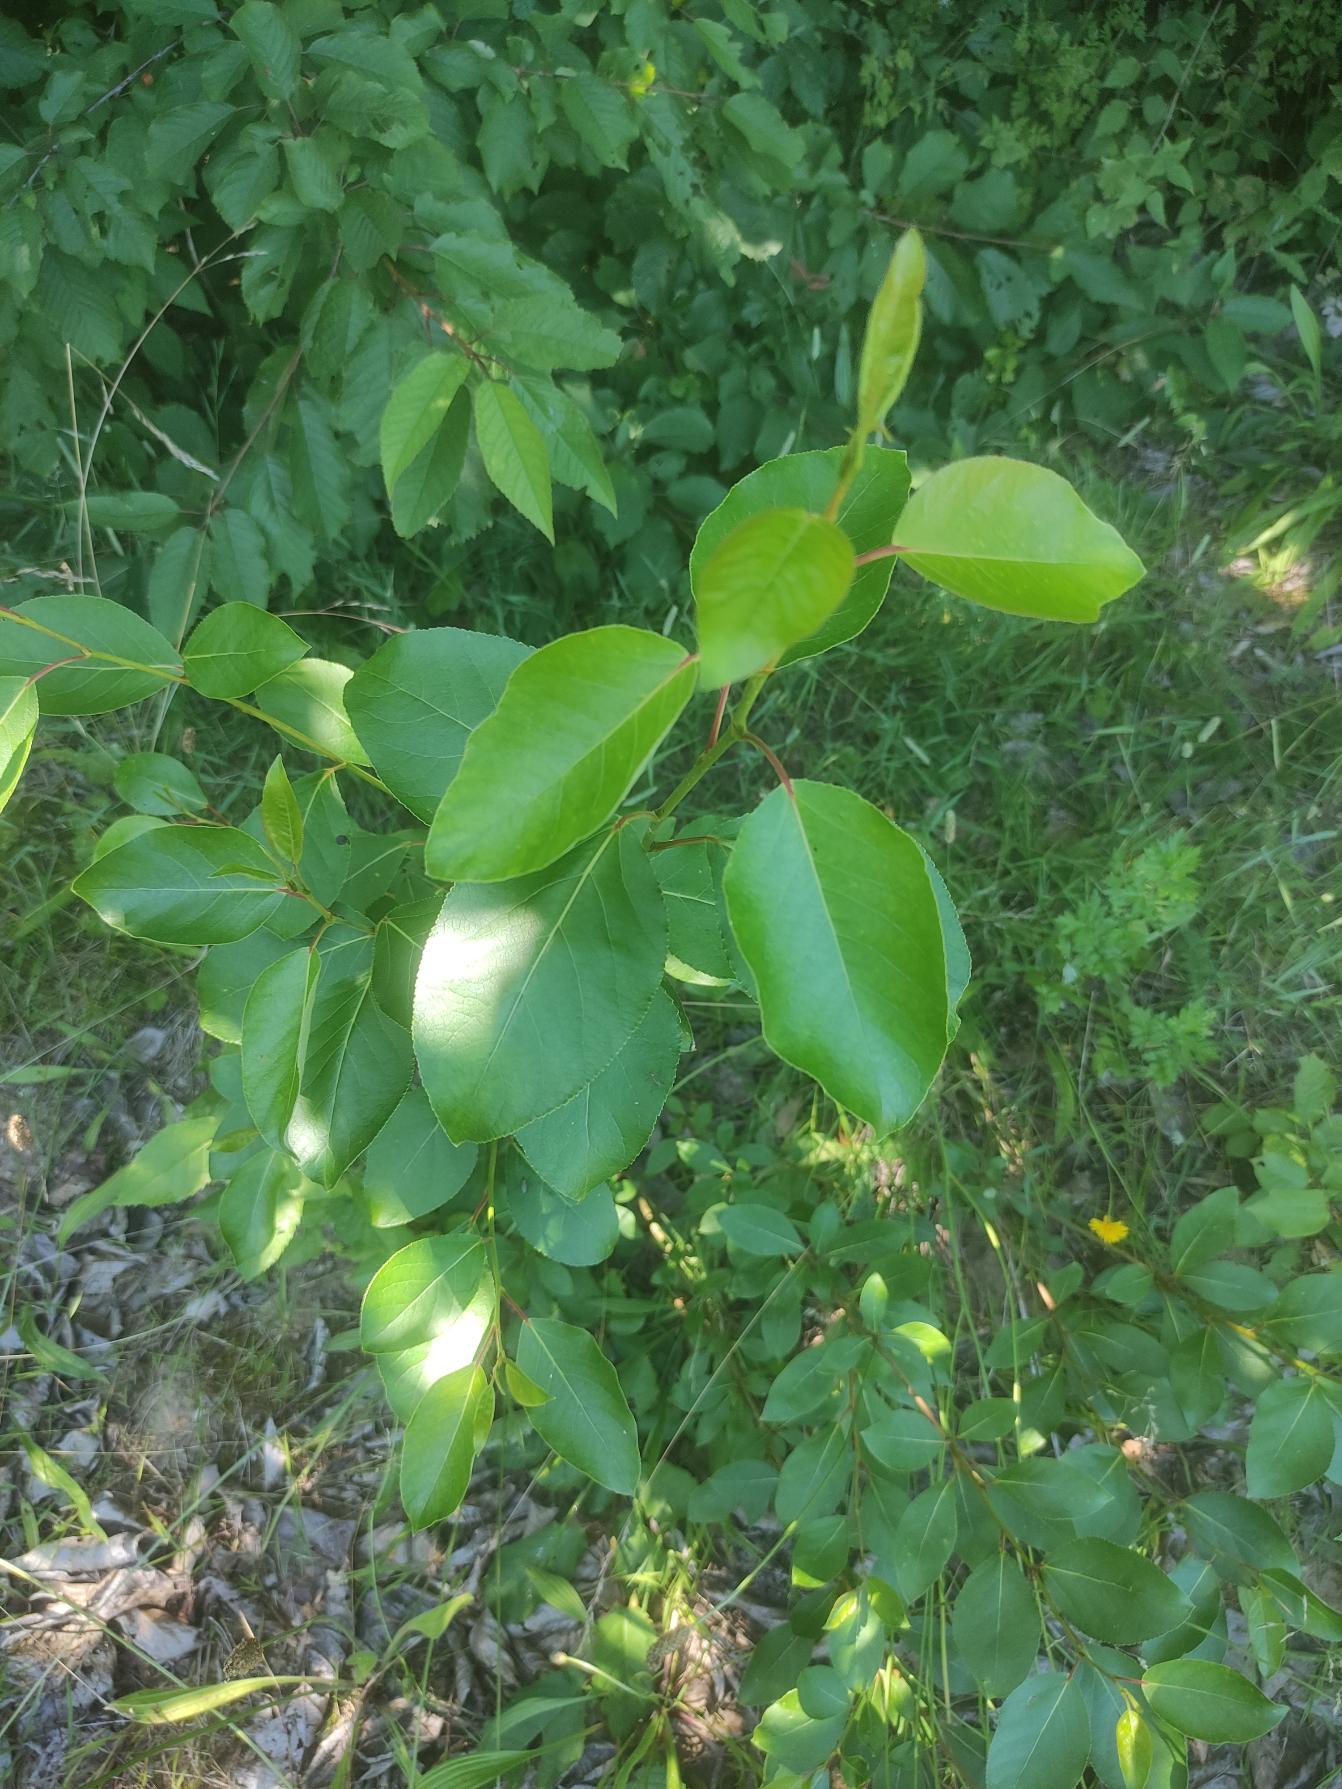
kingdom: Plantae
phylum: Tracheophyta
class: Magnoliopsida
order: Rosales
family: Rosaceae
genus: Prunus
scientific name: Prunus serotina
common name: Glansbladet hæg
